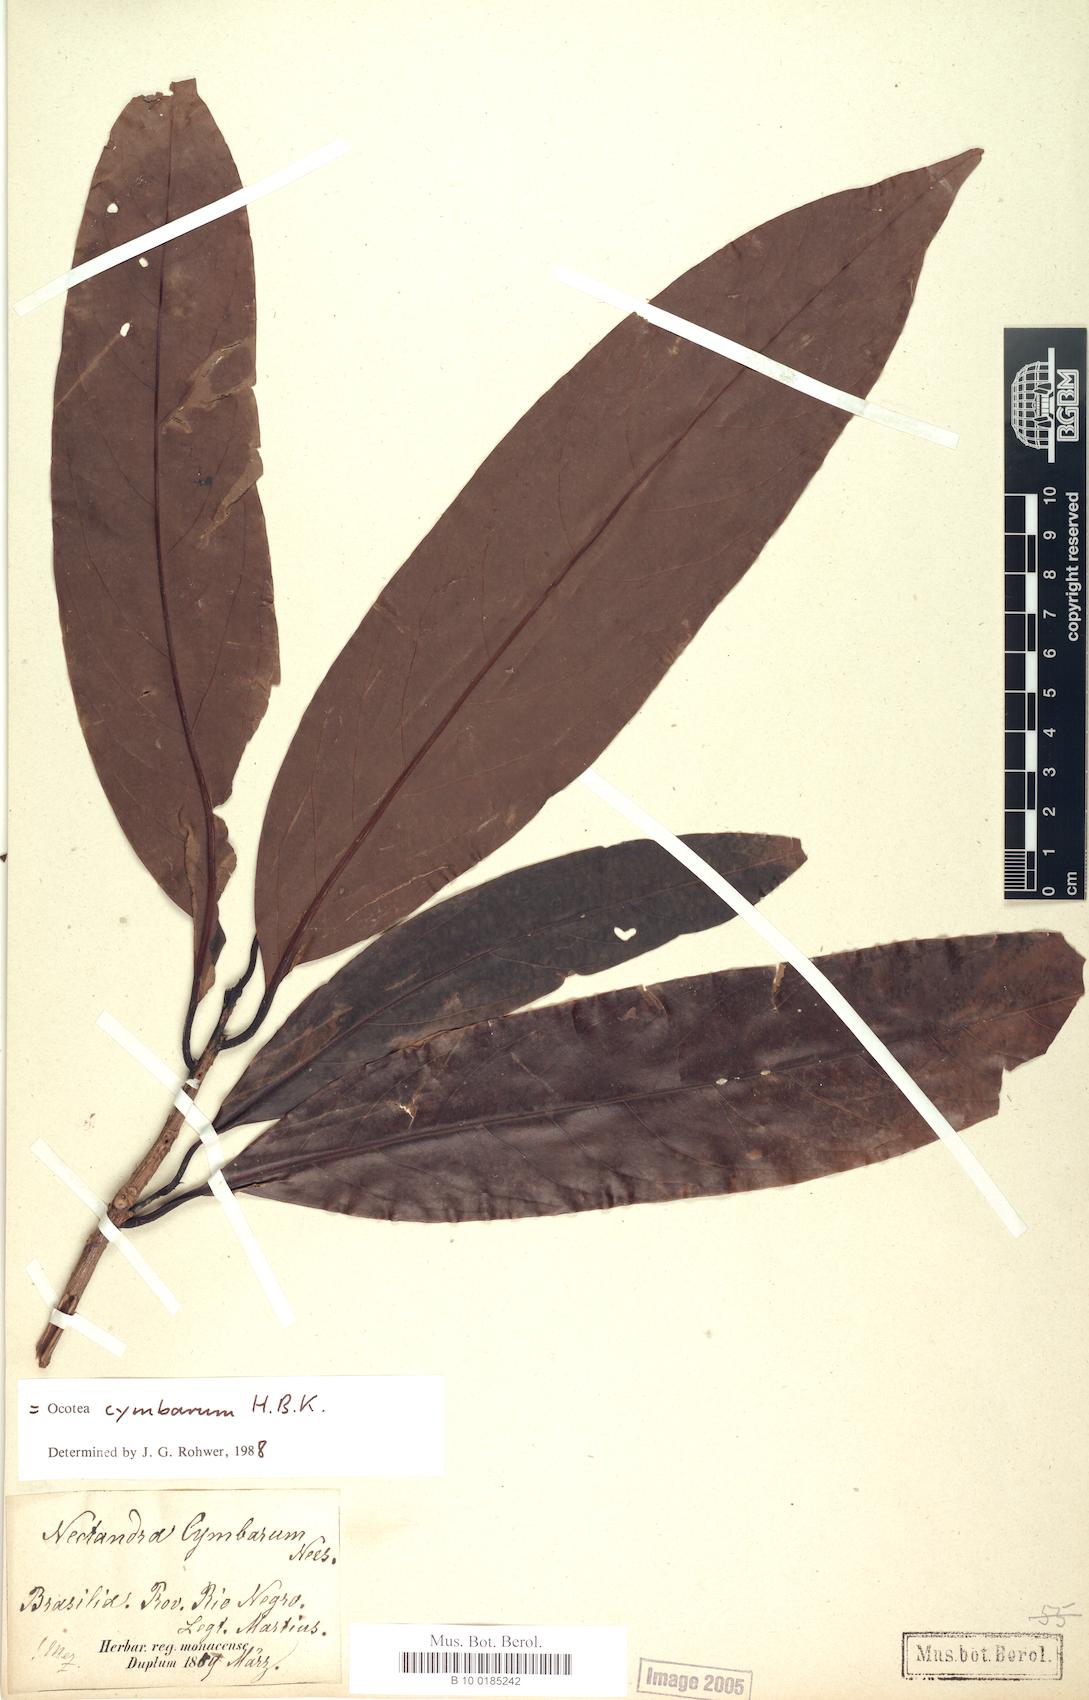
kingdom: Plantae
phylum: Tracheophyta
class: Magnoliopsida
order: Laurales
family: Lauraceae
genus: Mespilodaphne
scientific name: Mespilodaphne cymbarum
